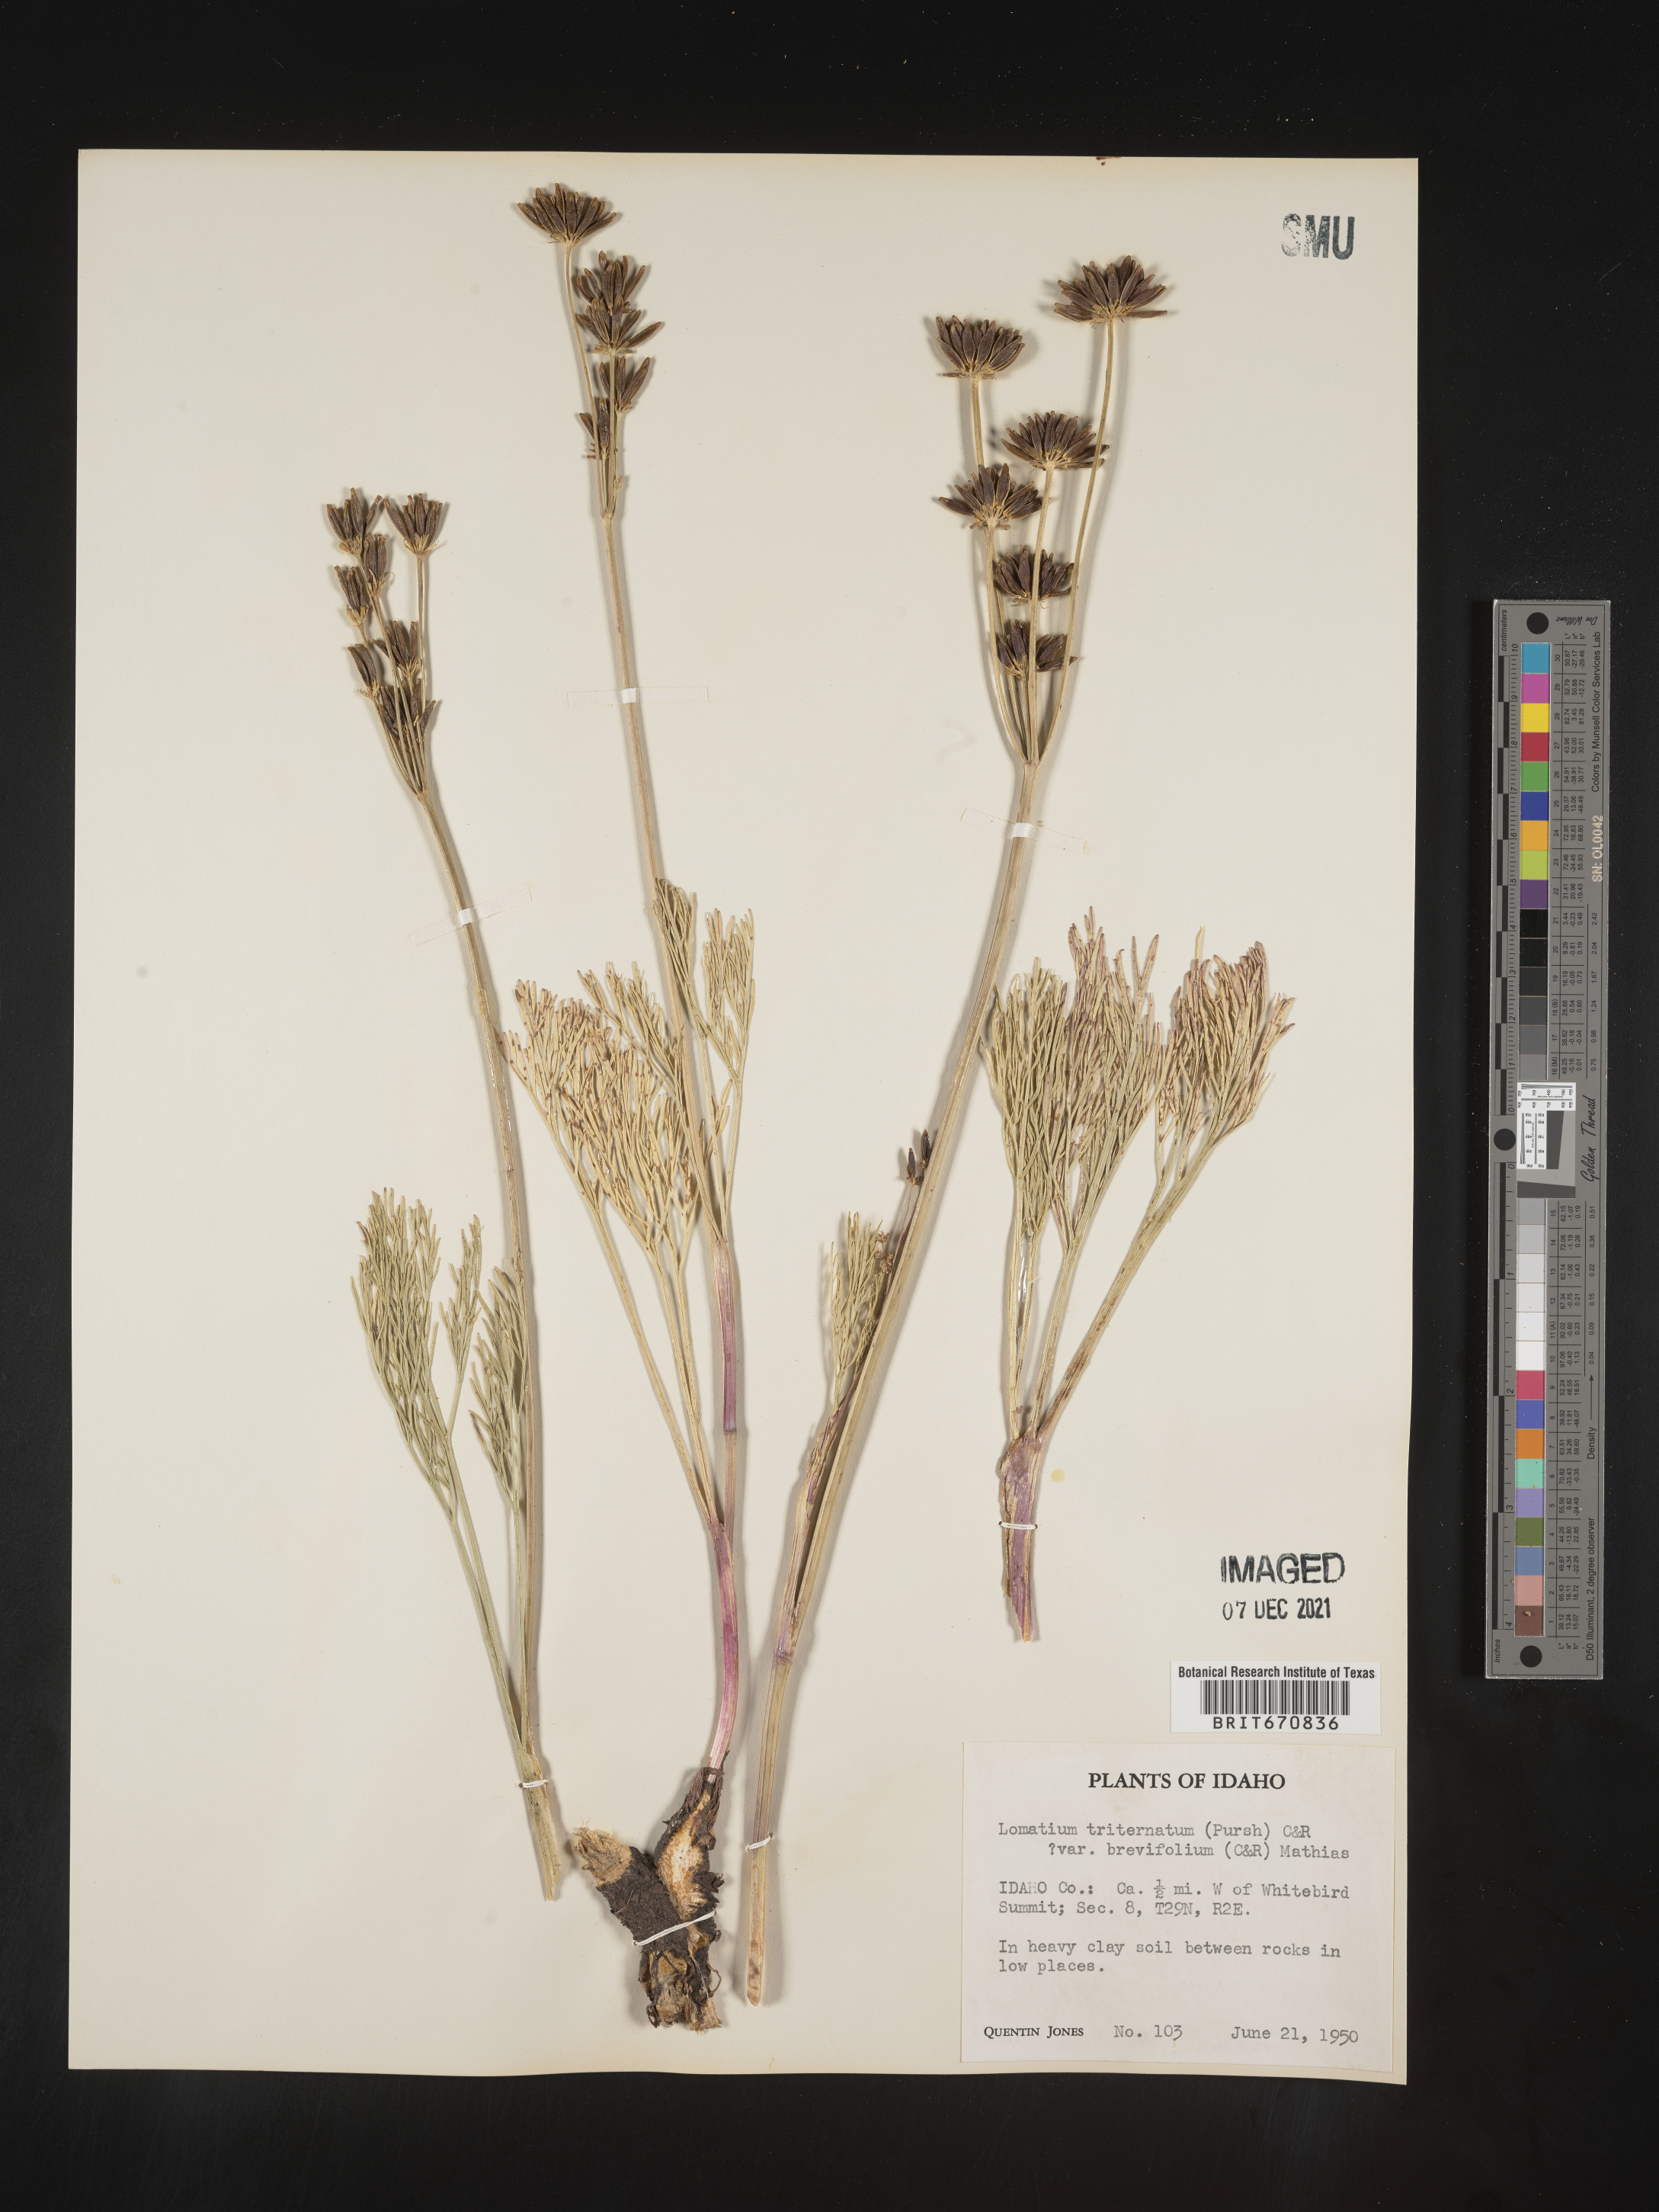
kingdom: Plantae
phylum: Tracheophyta
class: Magnoliopsida
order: Apiales
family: Apiaceae
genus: Lomatium
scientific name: Lomatium triternatum
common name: Ternate lomatium
